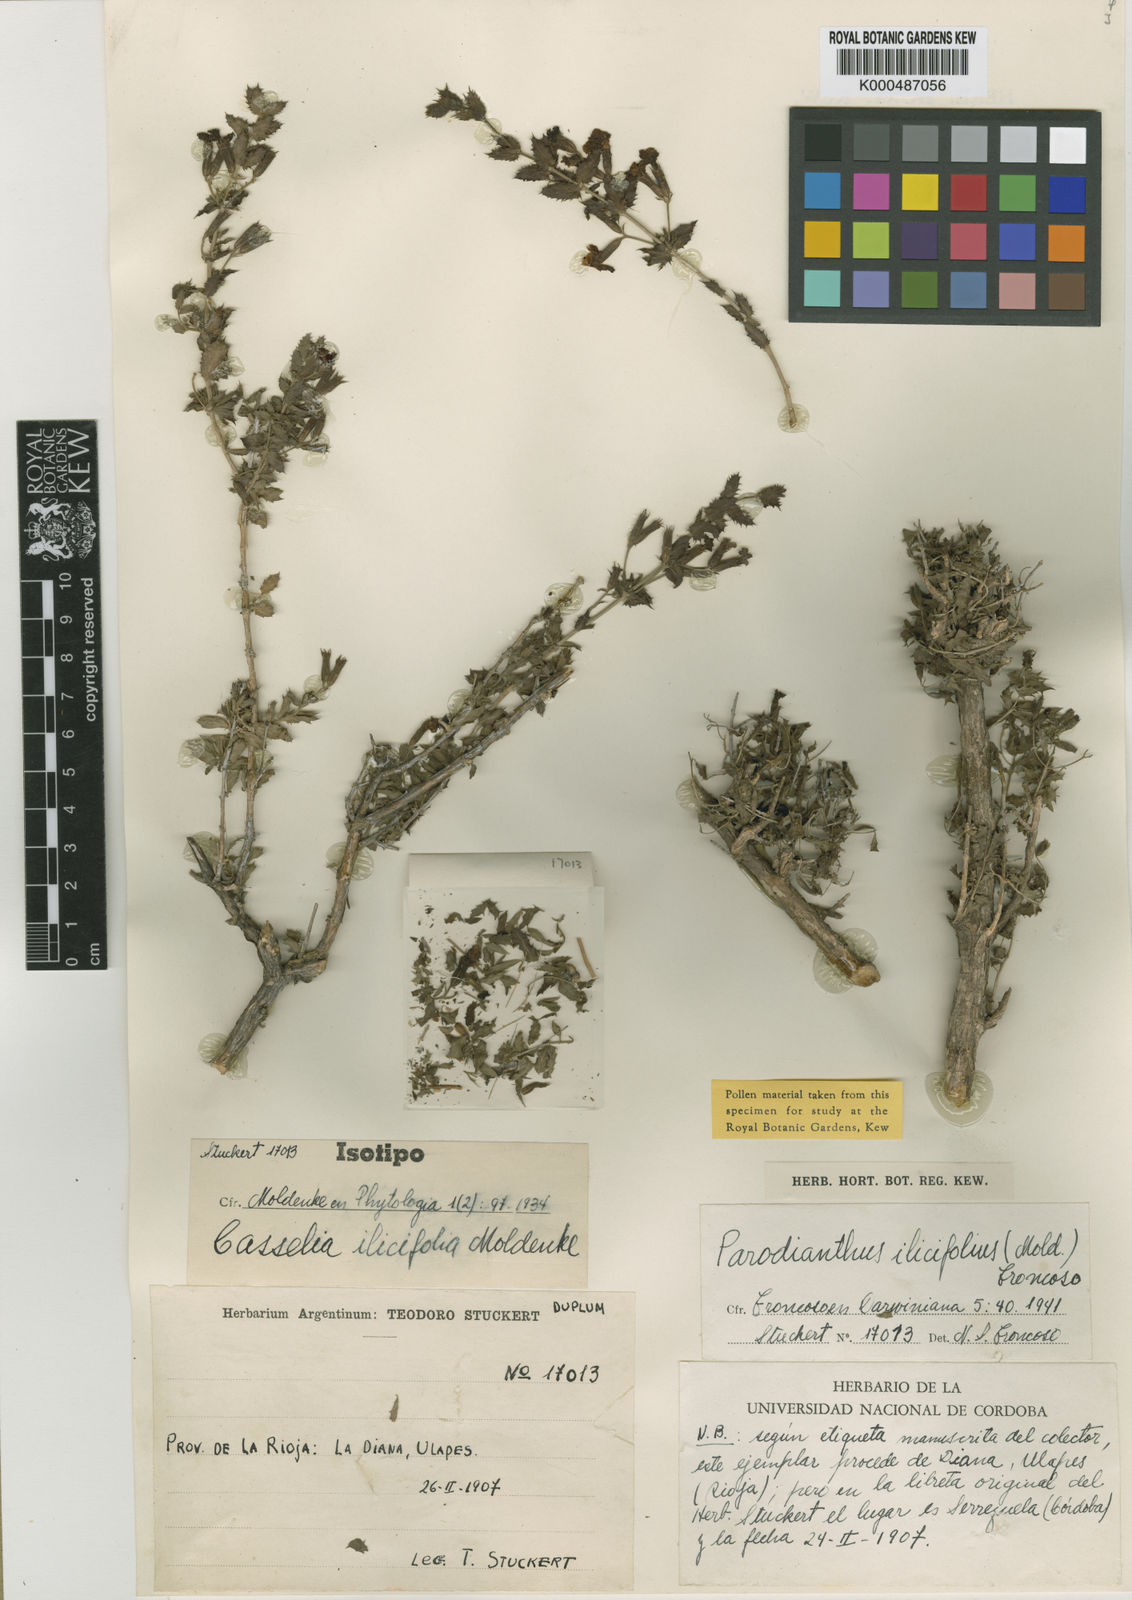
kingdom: Plantae
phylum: Tracheophyta
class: Magnoliopsida
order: Lamiales
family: Verbenaceae
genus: Parodianthus
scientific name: Parodianthus ilicifolius
